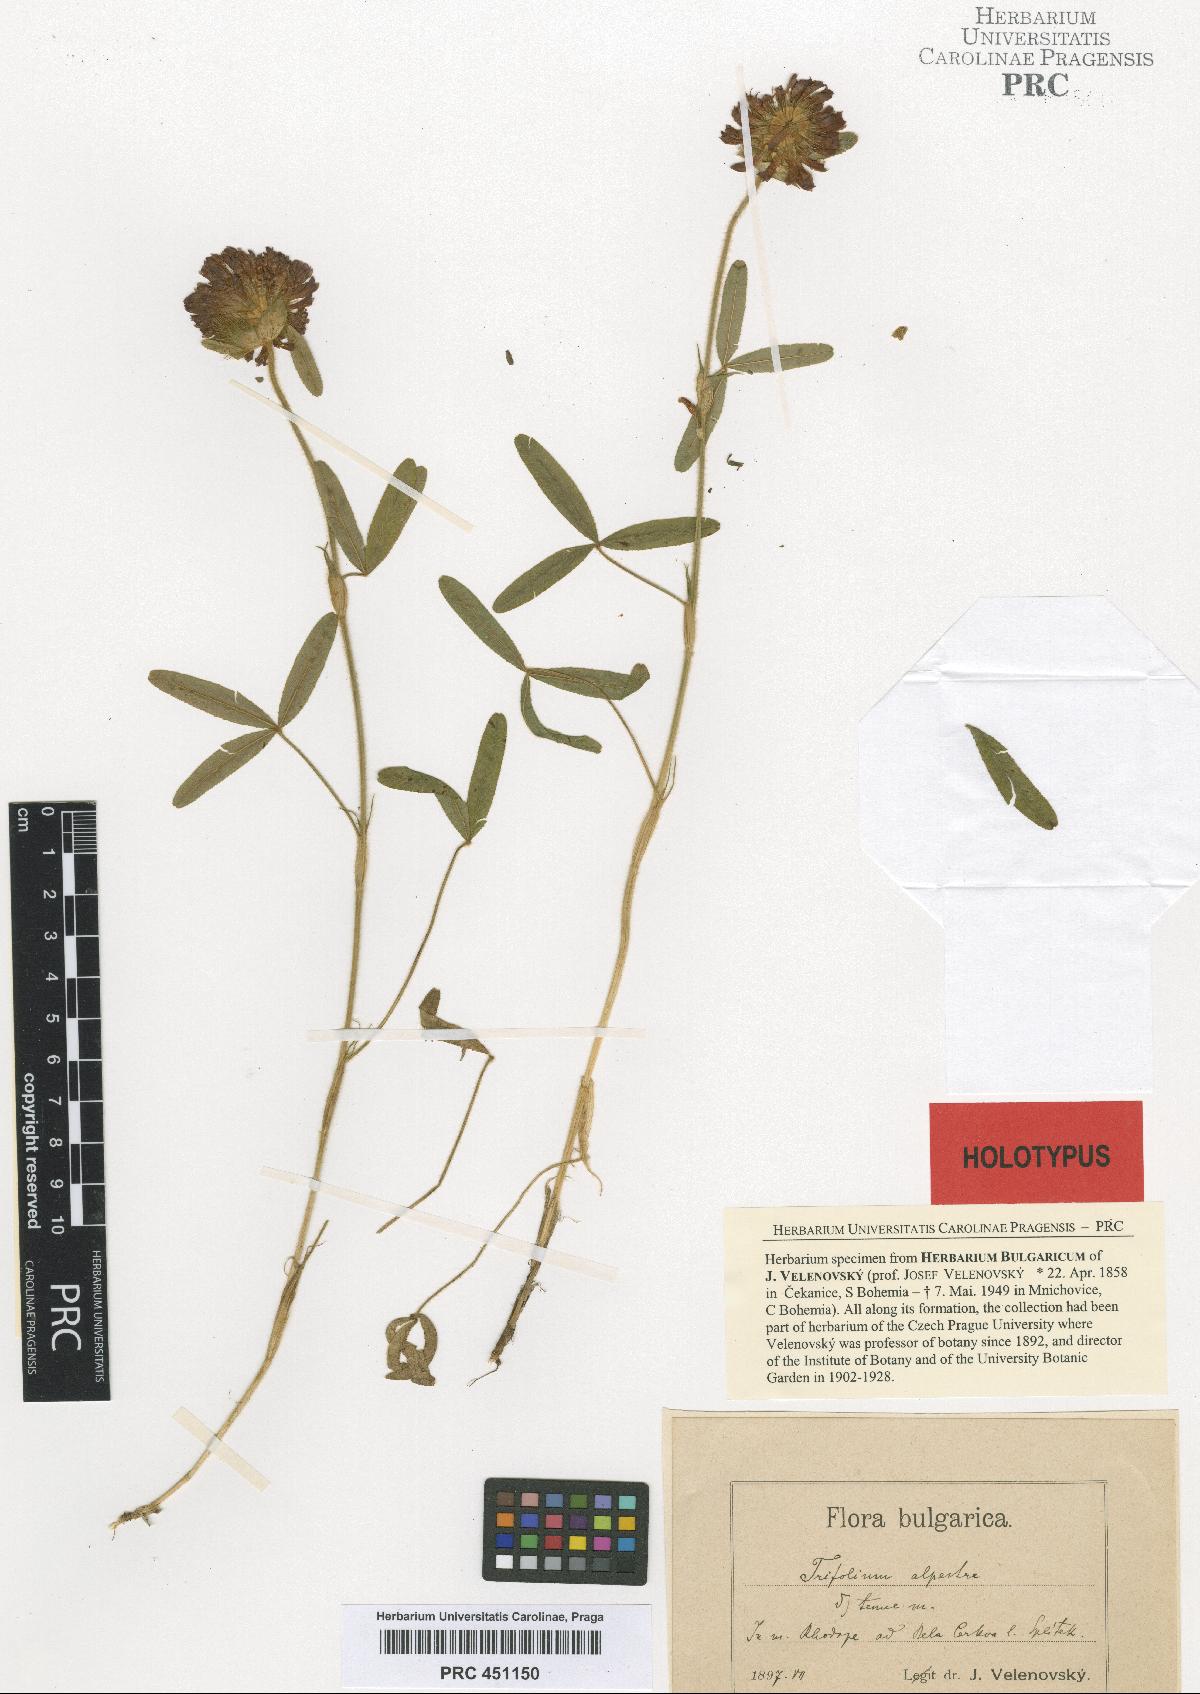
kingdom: Plantae
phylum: Tracheophyta
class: Magnoliopsida
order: Fabales
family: Fabaceae
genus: Trifolium
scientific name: Trifolium alpestre
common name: Owl-head clover
